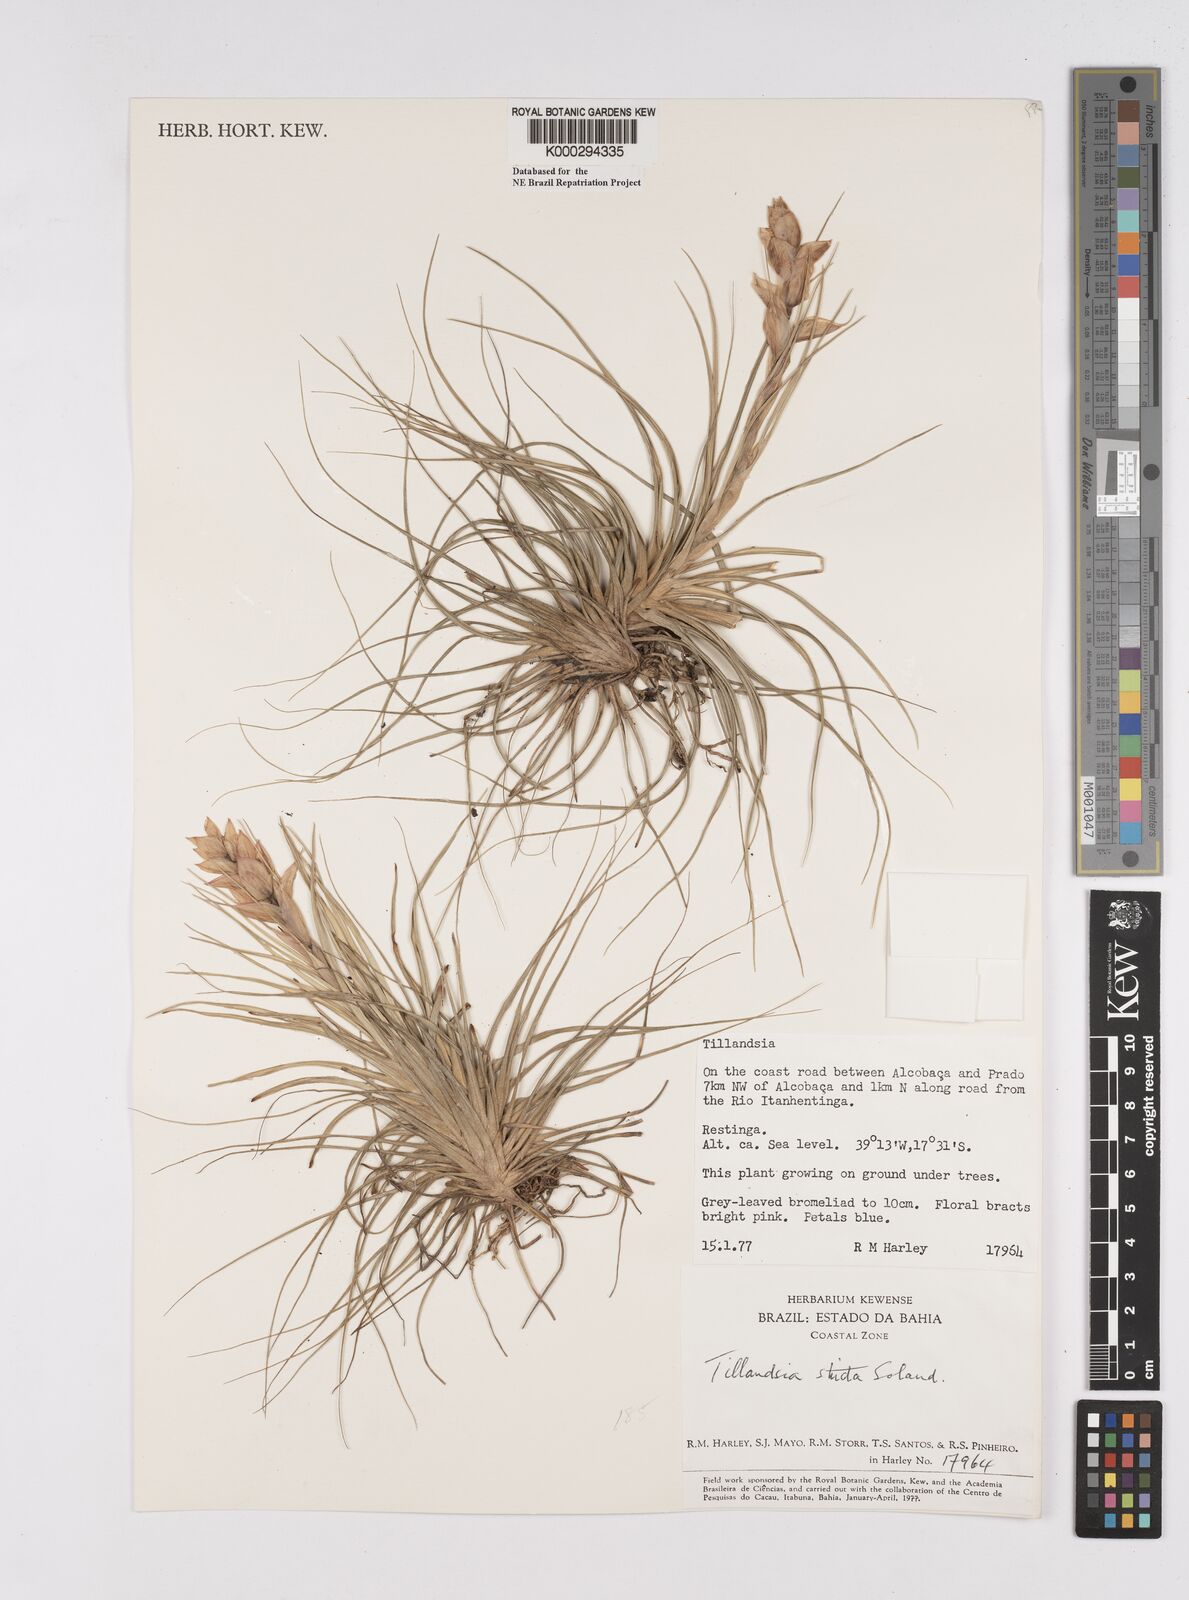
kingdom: Plantae
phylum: Tracheophyta
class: Liliopsida
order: Poales
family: Bromeliaceae
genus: Tillandsia
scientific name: Tillandsia
